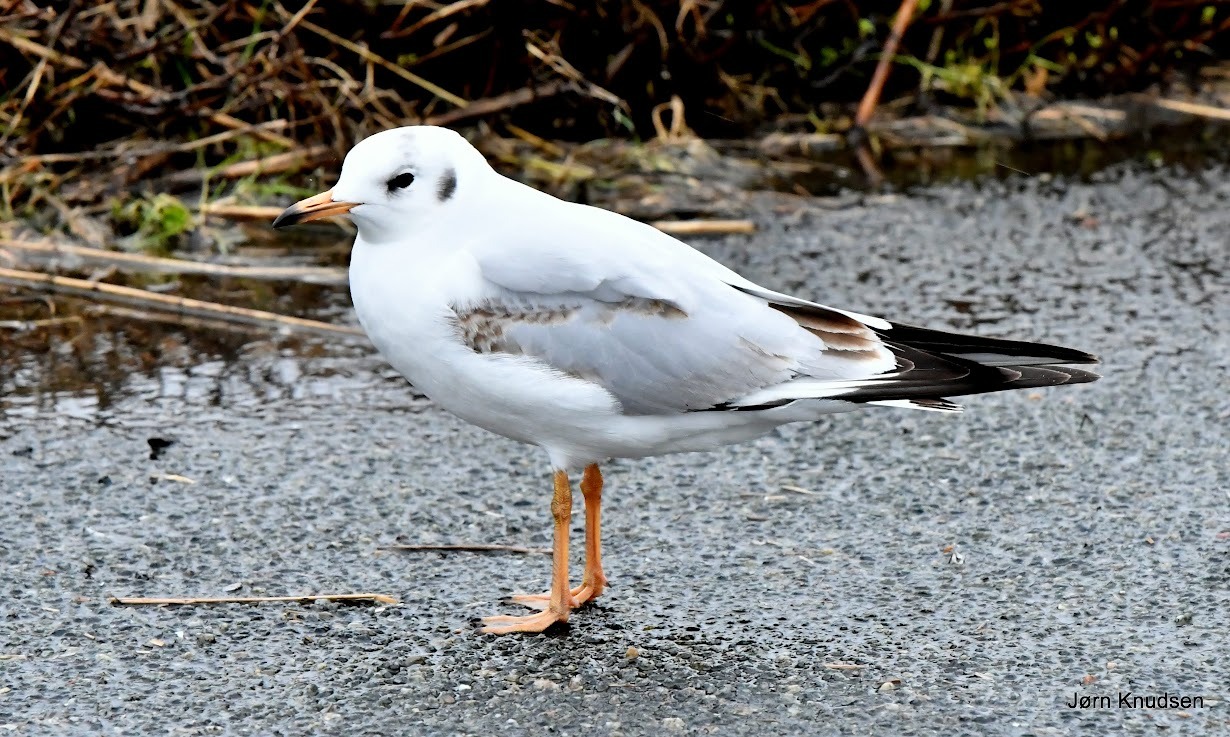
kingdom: Animalia
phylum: Chordata
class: Aves
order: Charadriiformes
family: Laridae
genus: Chroicocephalus
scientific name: Chroicocephalus ridibundus
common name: Hættemåge
